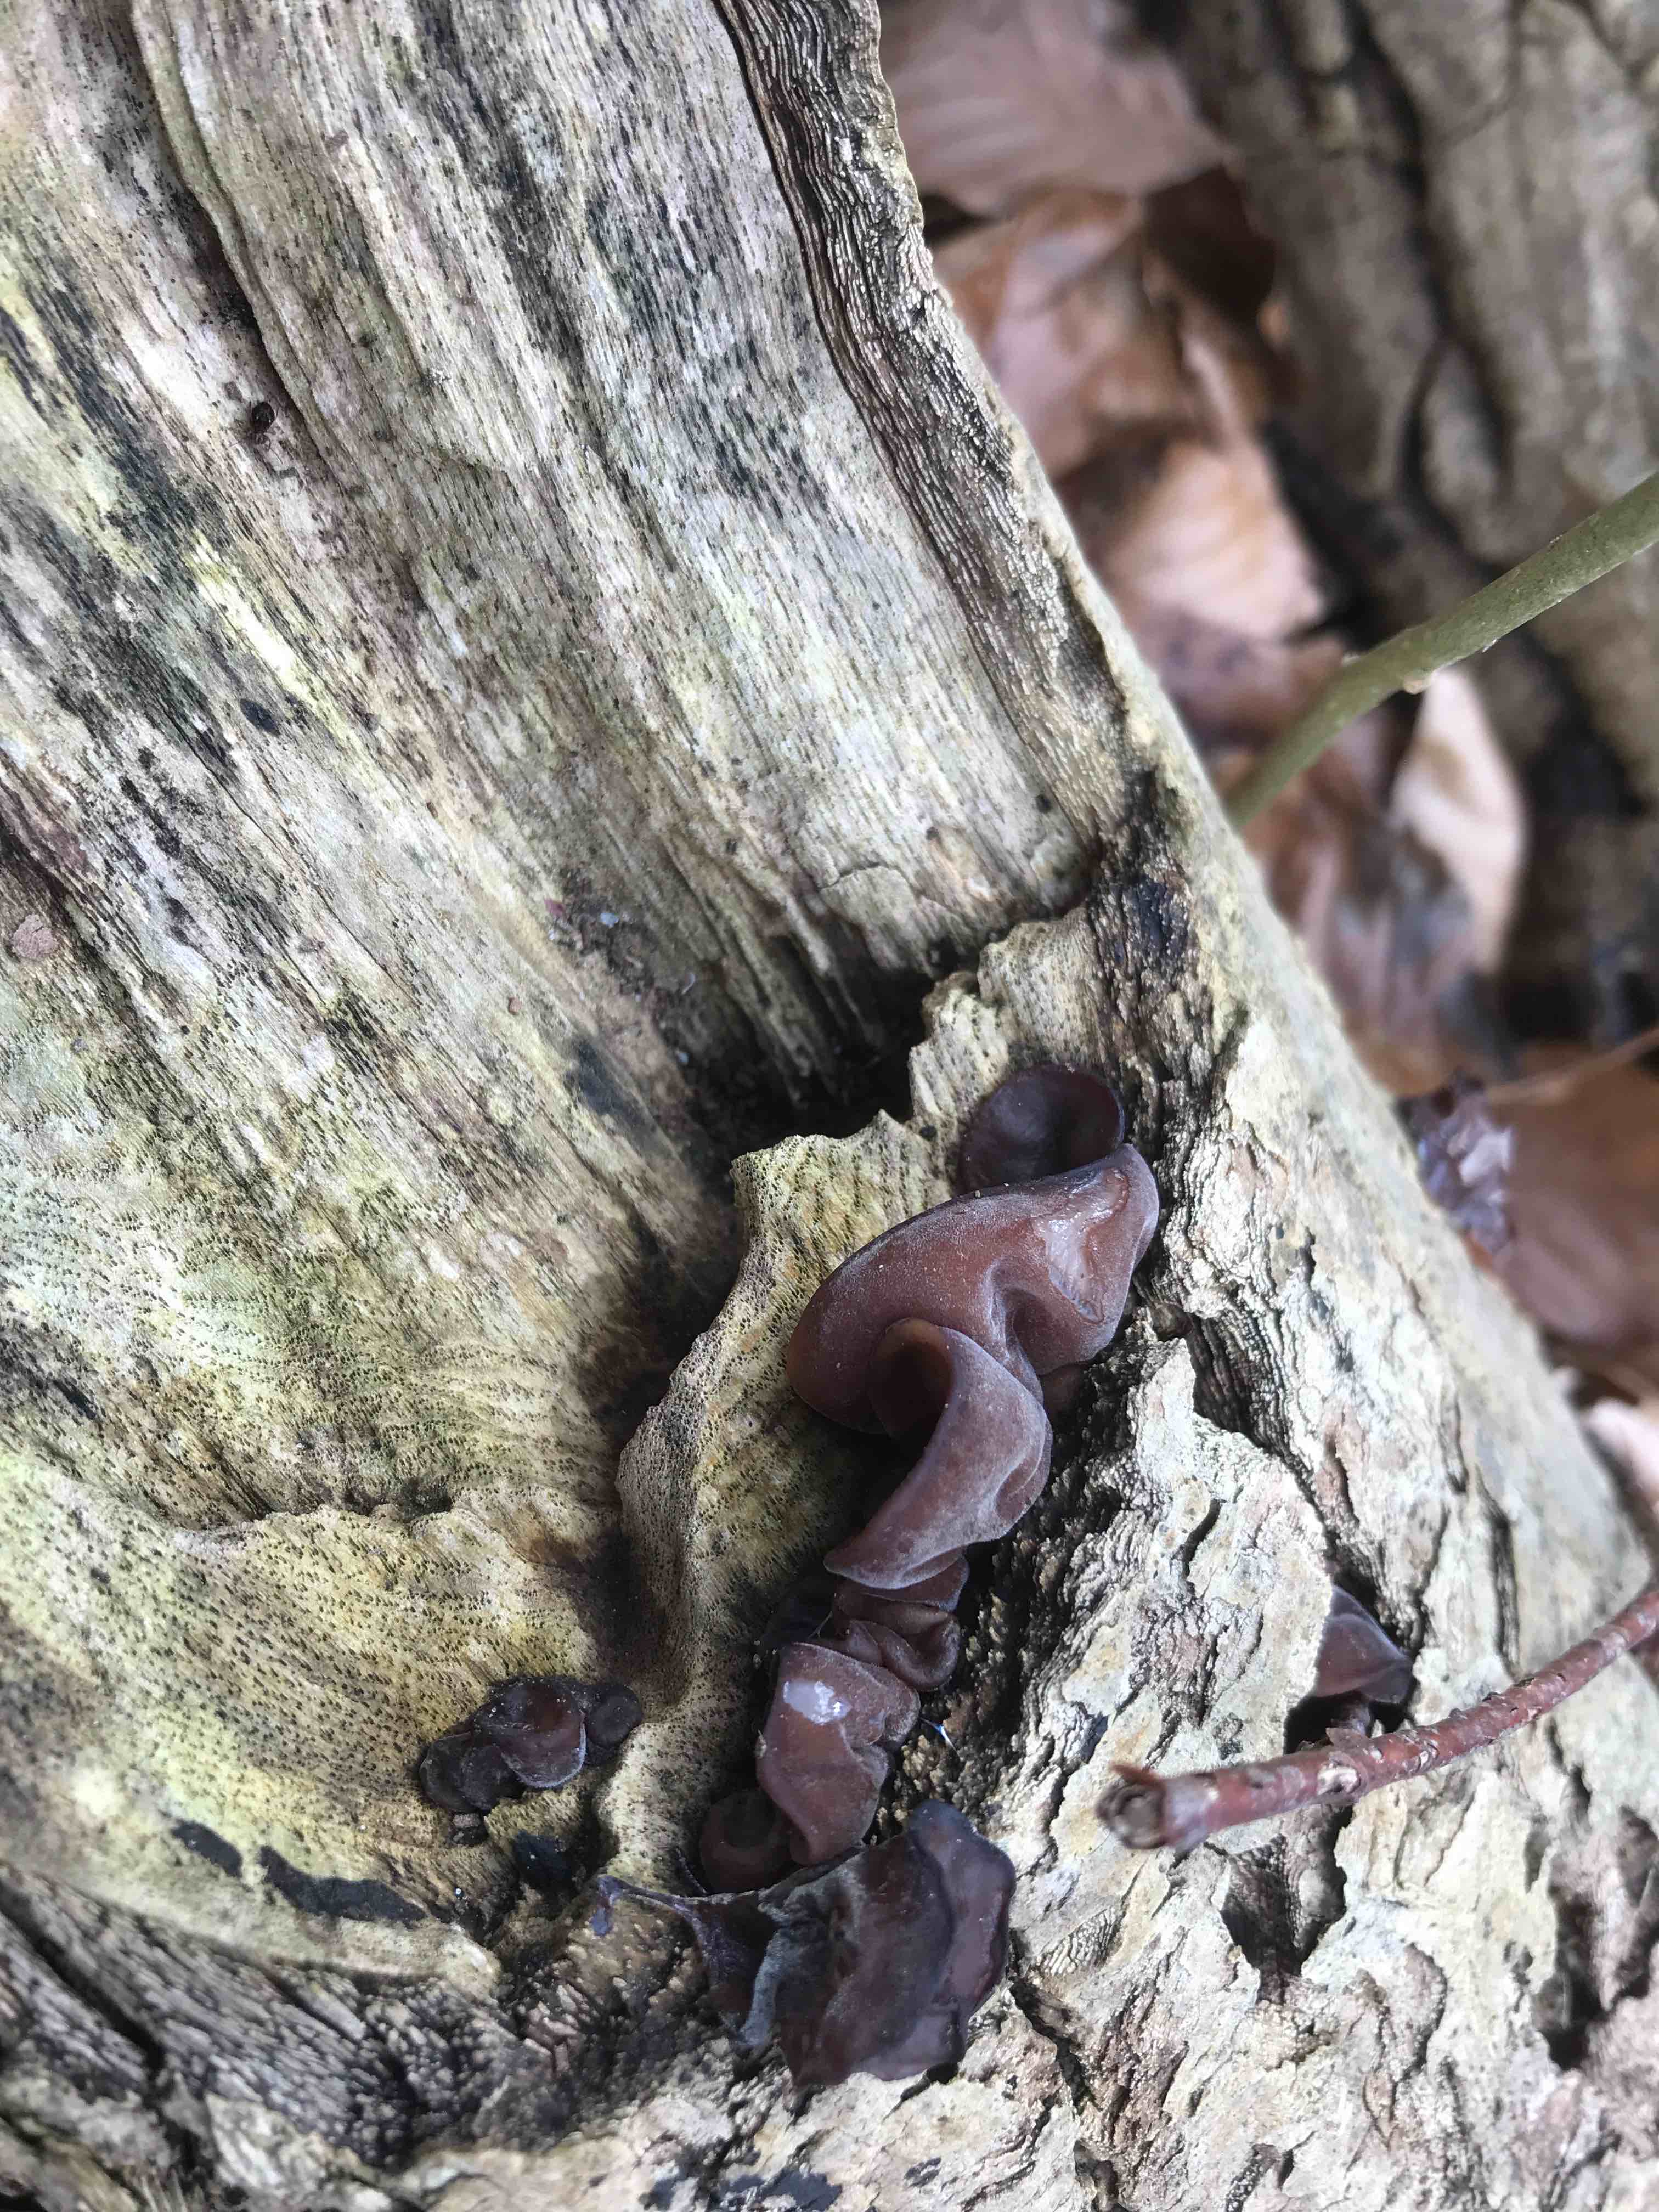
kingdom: Fungi
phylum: Basidiomycota
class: Agaricomycetes
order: Auriculariales
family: Auriculariaceae
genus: Auricularia
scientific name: Auricularia auricula-judae
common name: almindelig judasøre
